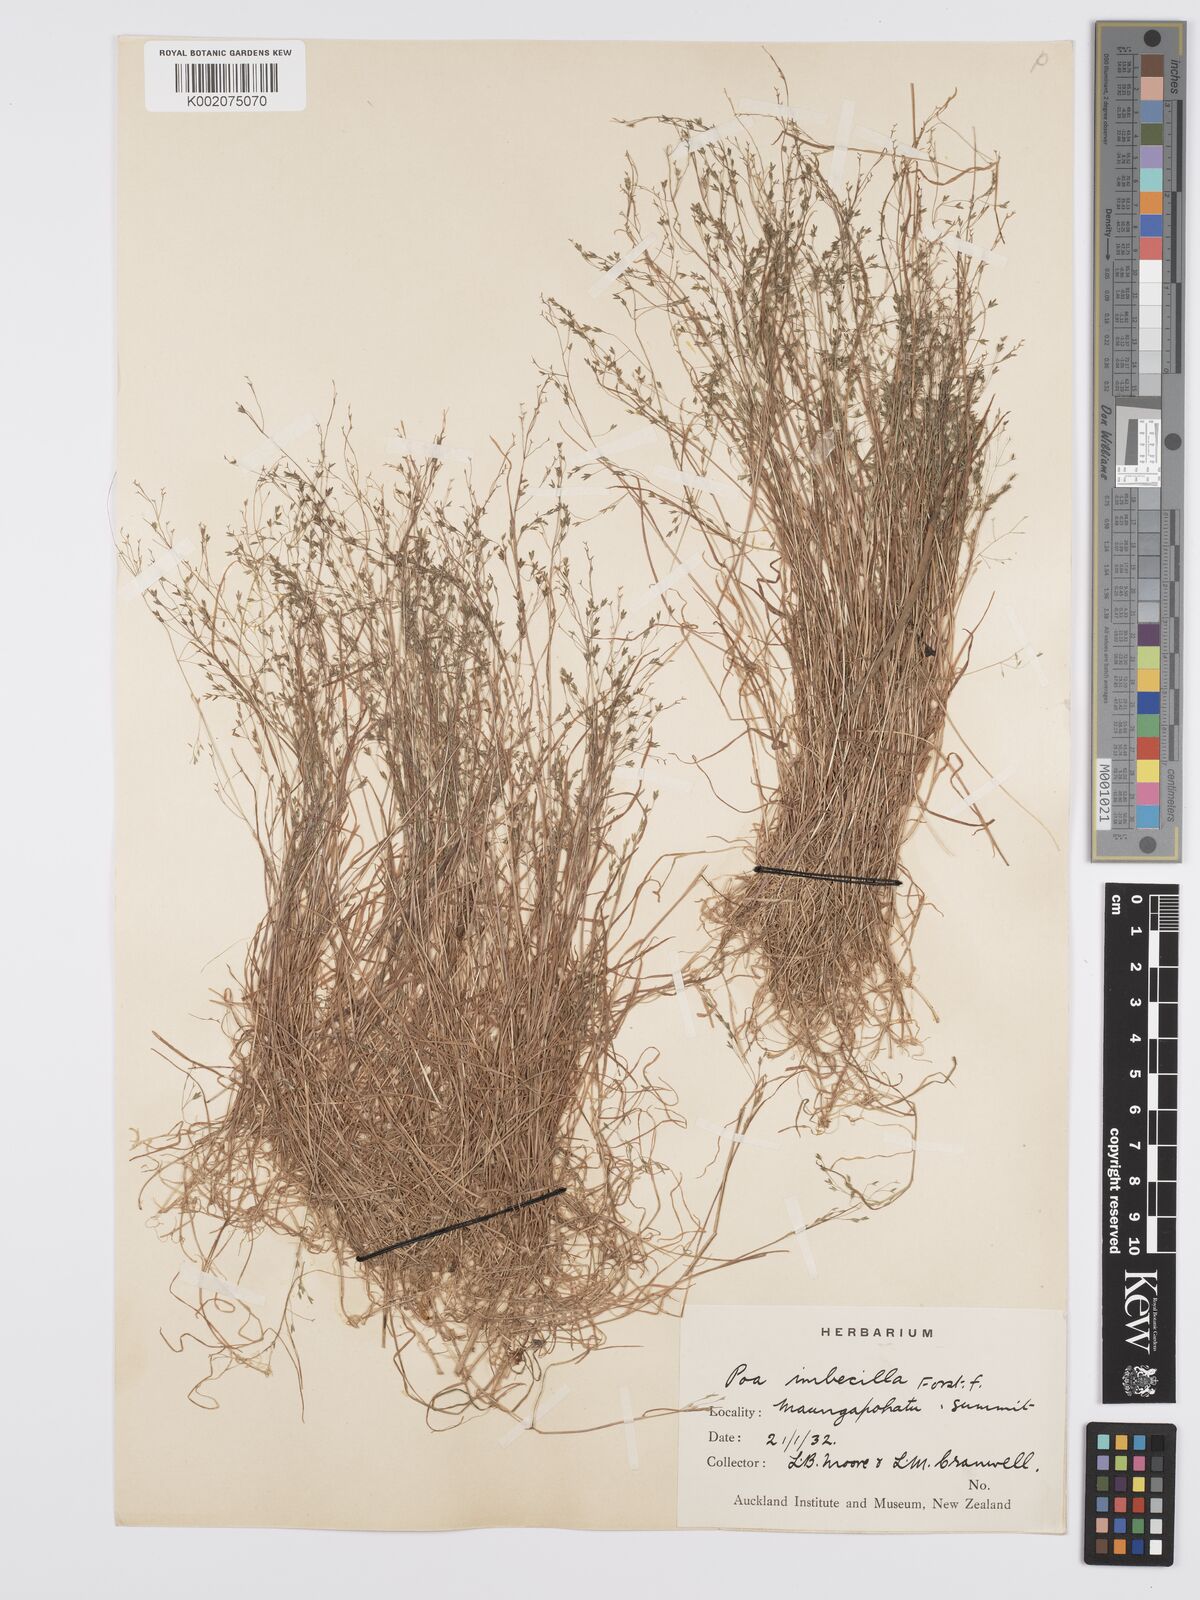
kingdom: Plantae
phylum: Tracheophyta
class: Liliopsida
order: Poales
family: Poaceae
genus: Poa
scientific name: Poa breviglumis
